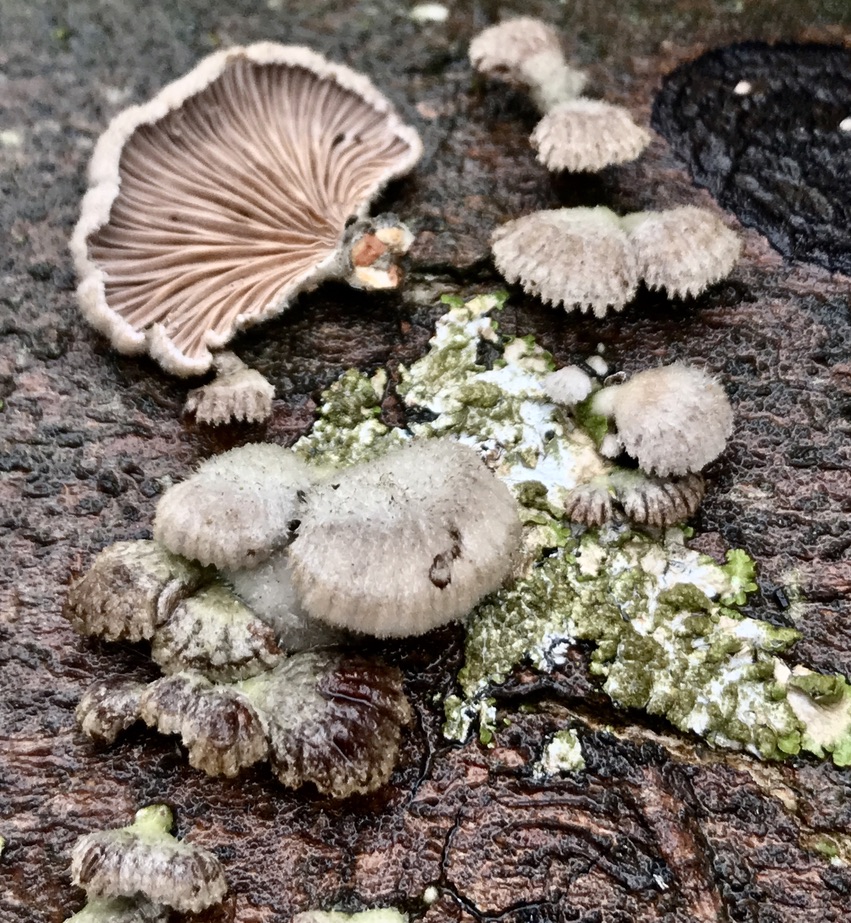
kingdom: Fungi
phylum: Basidiomycota
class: Agaricomycetes
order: Agaricales
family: Schizophyllaceae
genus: Schizophyllum
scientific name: Schizophyllum commune
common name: kløvblad
